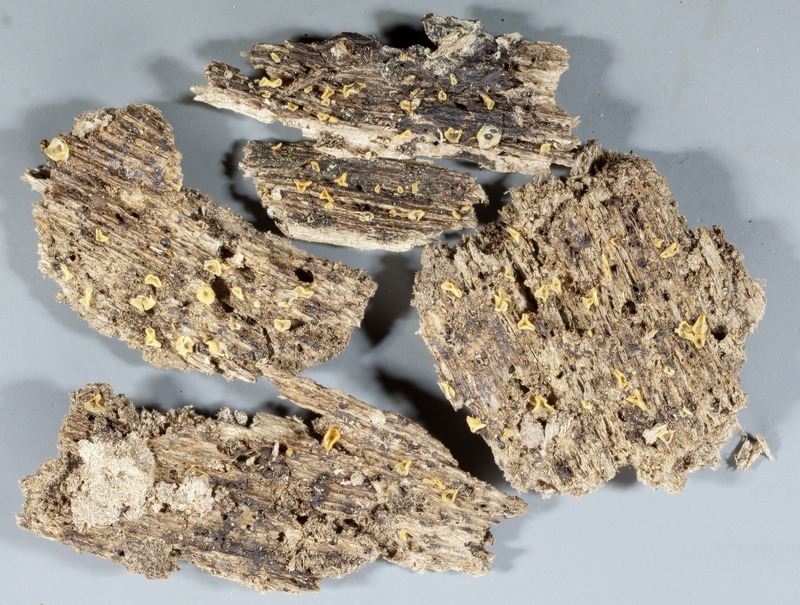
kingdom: Fungi
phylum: Ascomycota
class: Orbiliomycetes
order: Orbiliales
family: Orbiliaceae
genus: Orbilia
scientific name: Orbilia umbilicata
